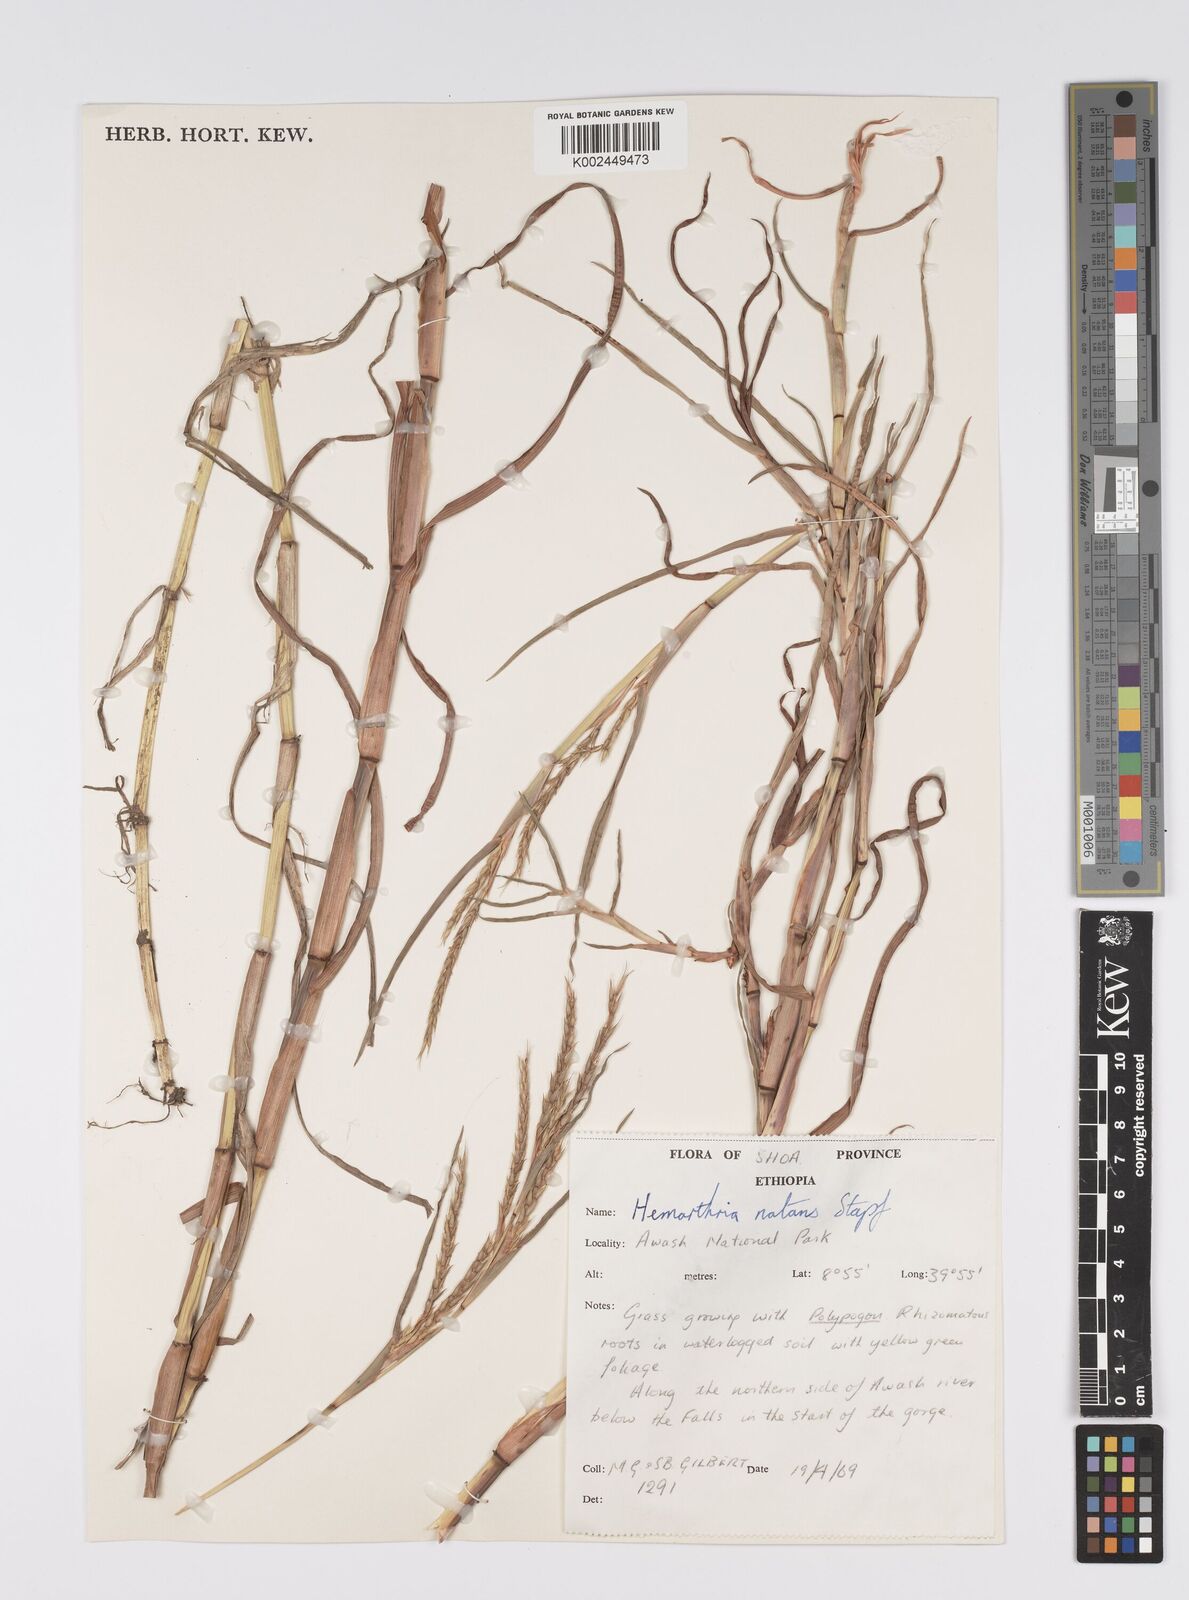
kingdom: Plantae
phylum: Tracheophyta
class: Liliopsida
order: Poales
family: Poaceae
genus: Hemarthria
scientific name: Hemarthria natans
